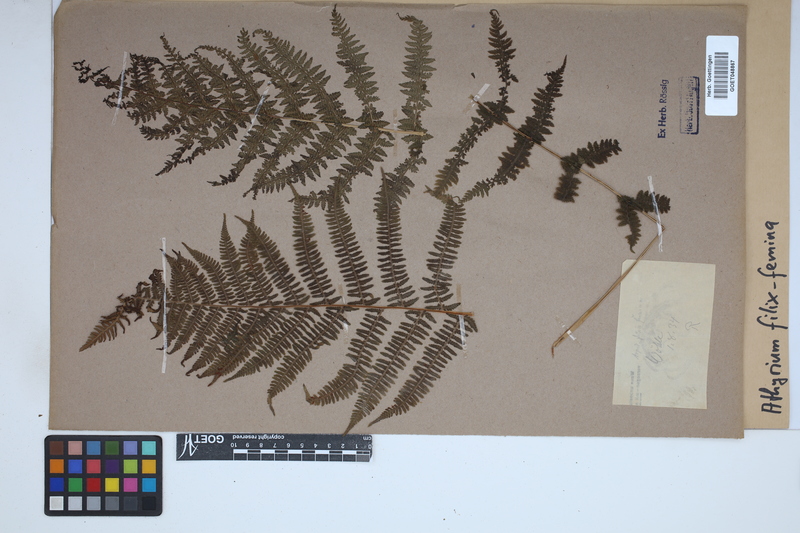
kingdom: Plantae
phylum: Tracheophyta
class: Polypodiopsida
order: Polypodiales
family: Athyriaceae
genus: Athyrium
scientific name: Athyrium filix-femina
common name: Lady fern
